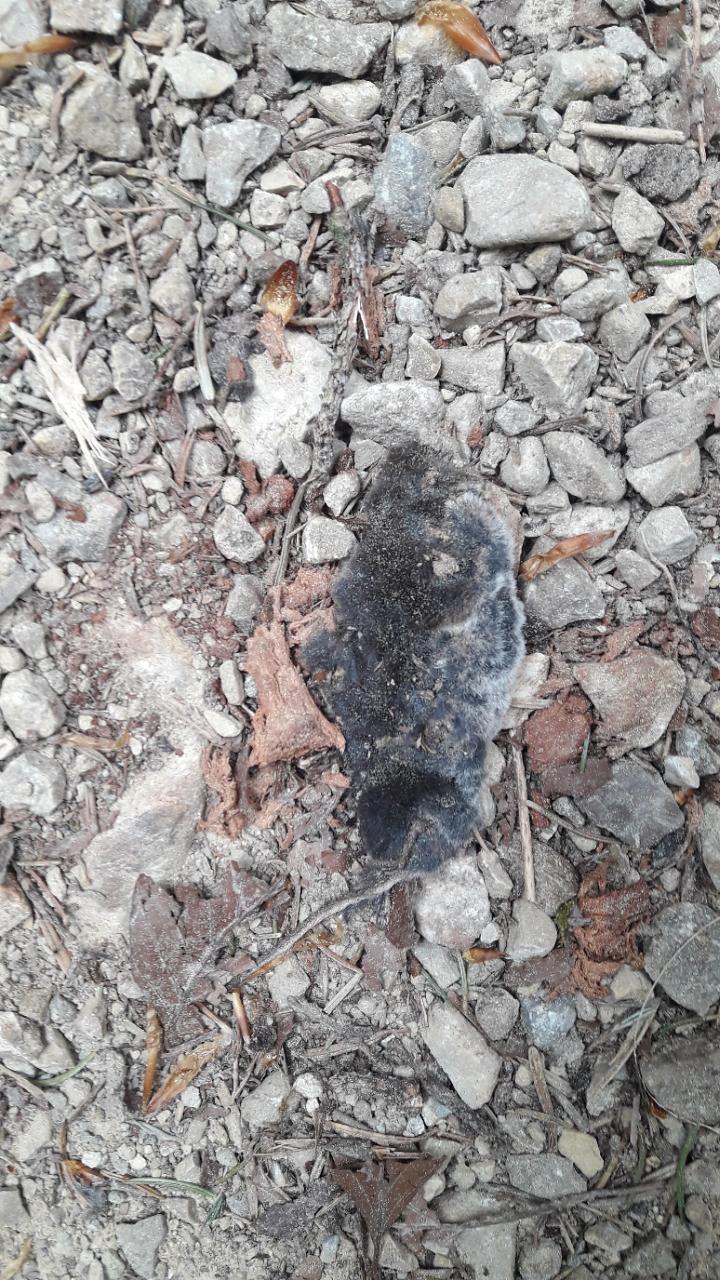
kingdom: Animalia
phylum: Chordata
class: Mammalia
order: Soricomorpha
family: Soricidae
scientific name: Soricidae
